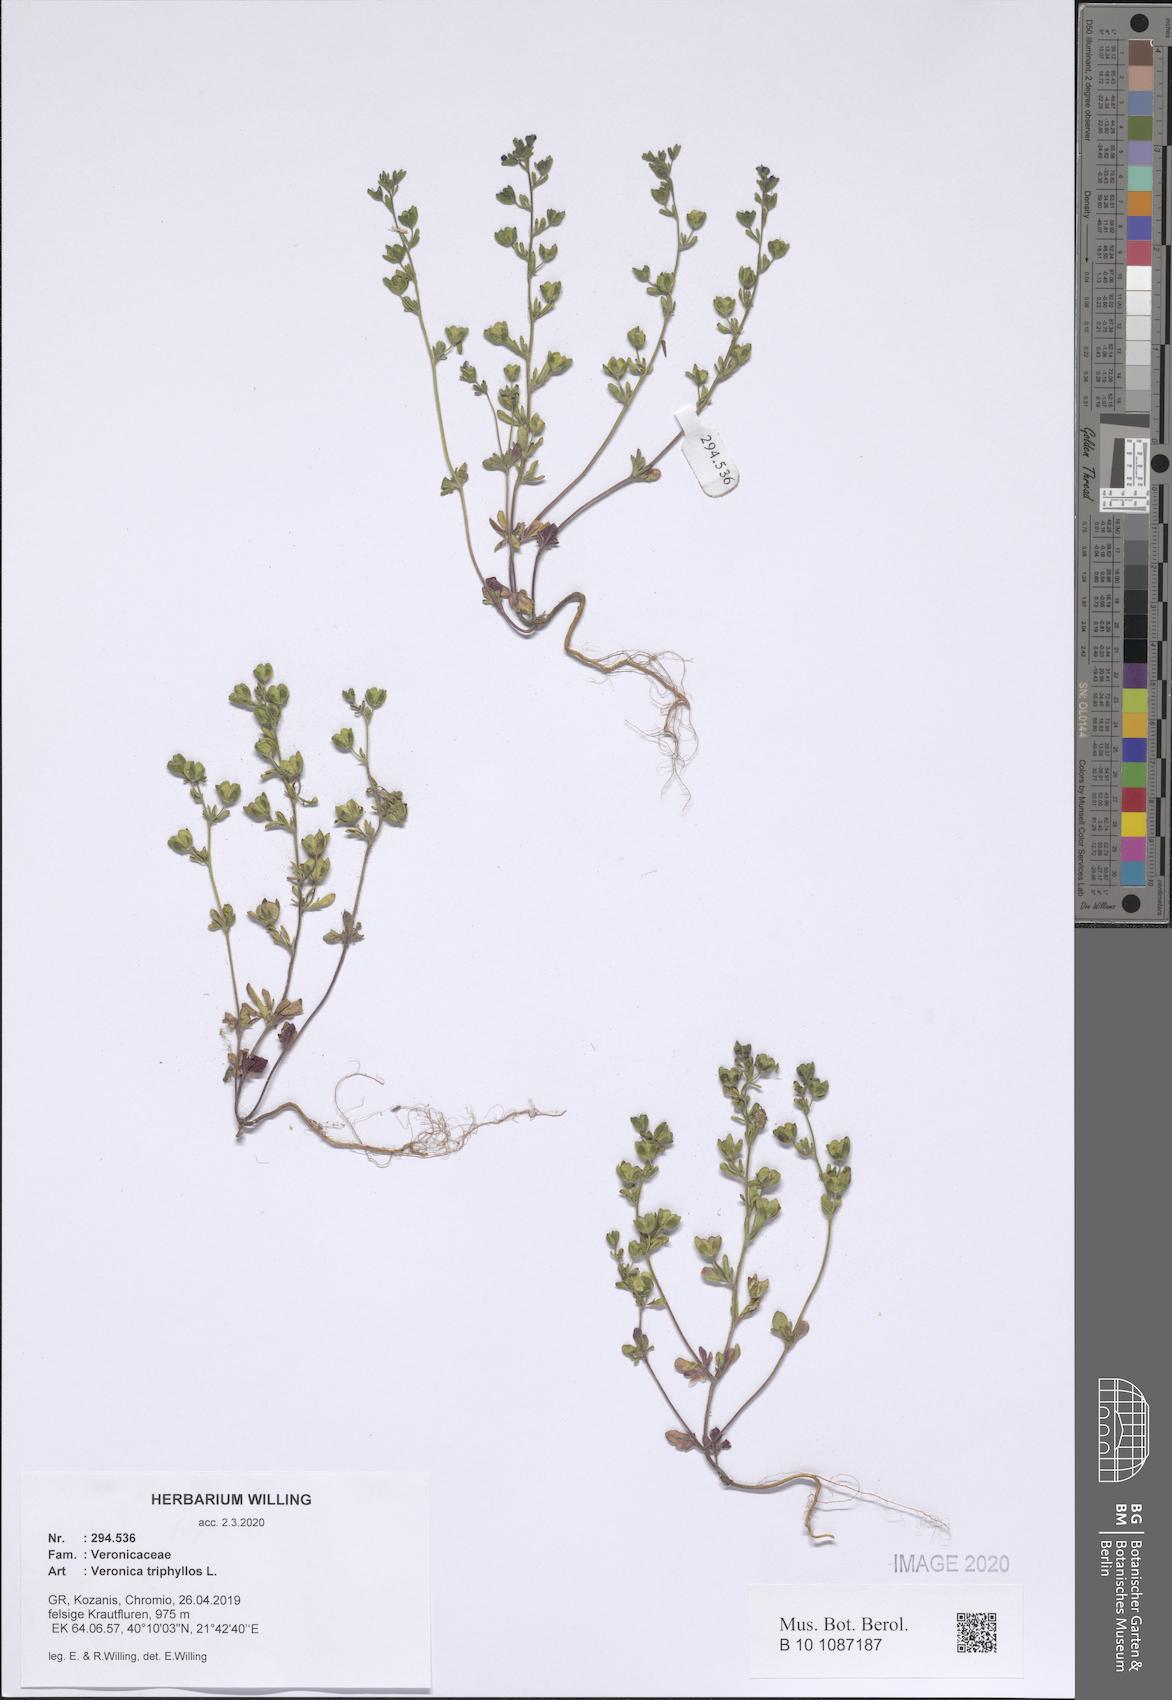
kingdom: Plantae
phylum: Tracheophyta
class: Magnoliopsida
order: Lamiales
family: Plantaginaceae
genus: Veronica
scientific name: Veronica triphyllos
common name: Fingered speedwell
